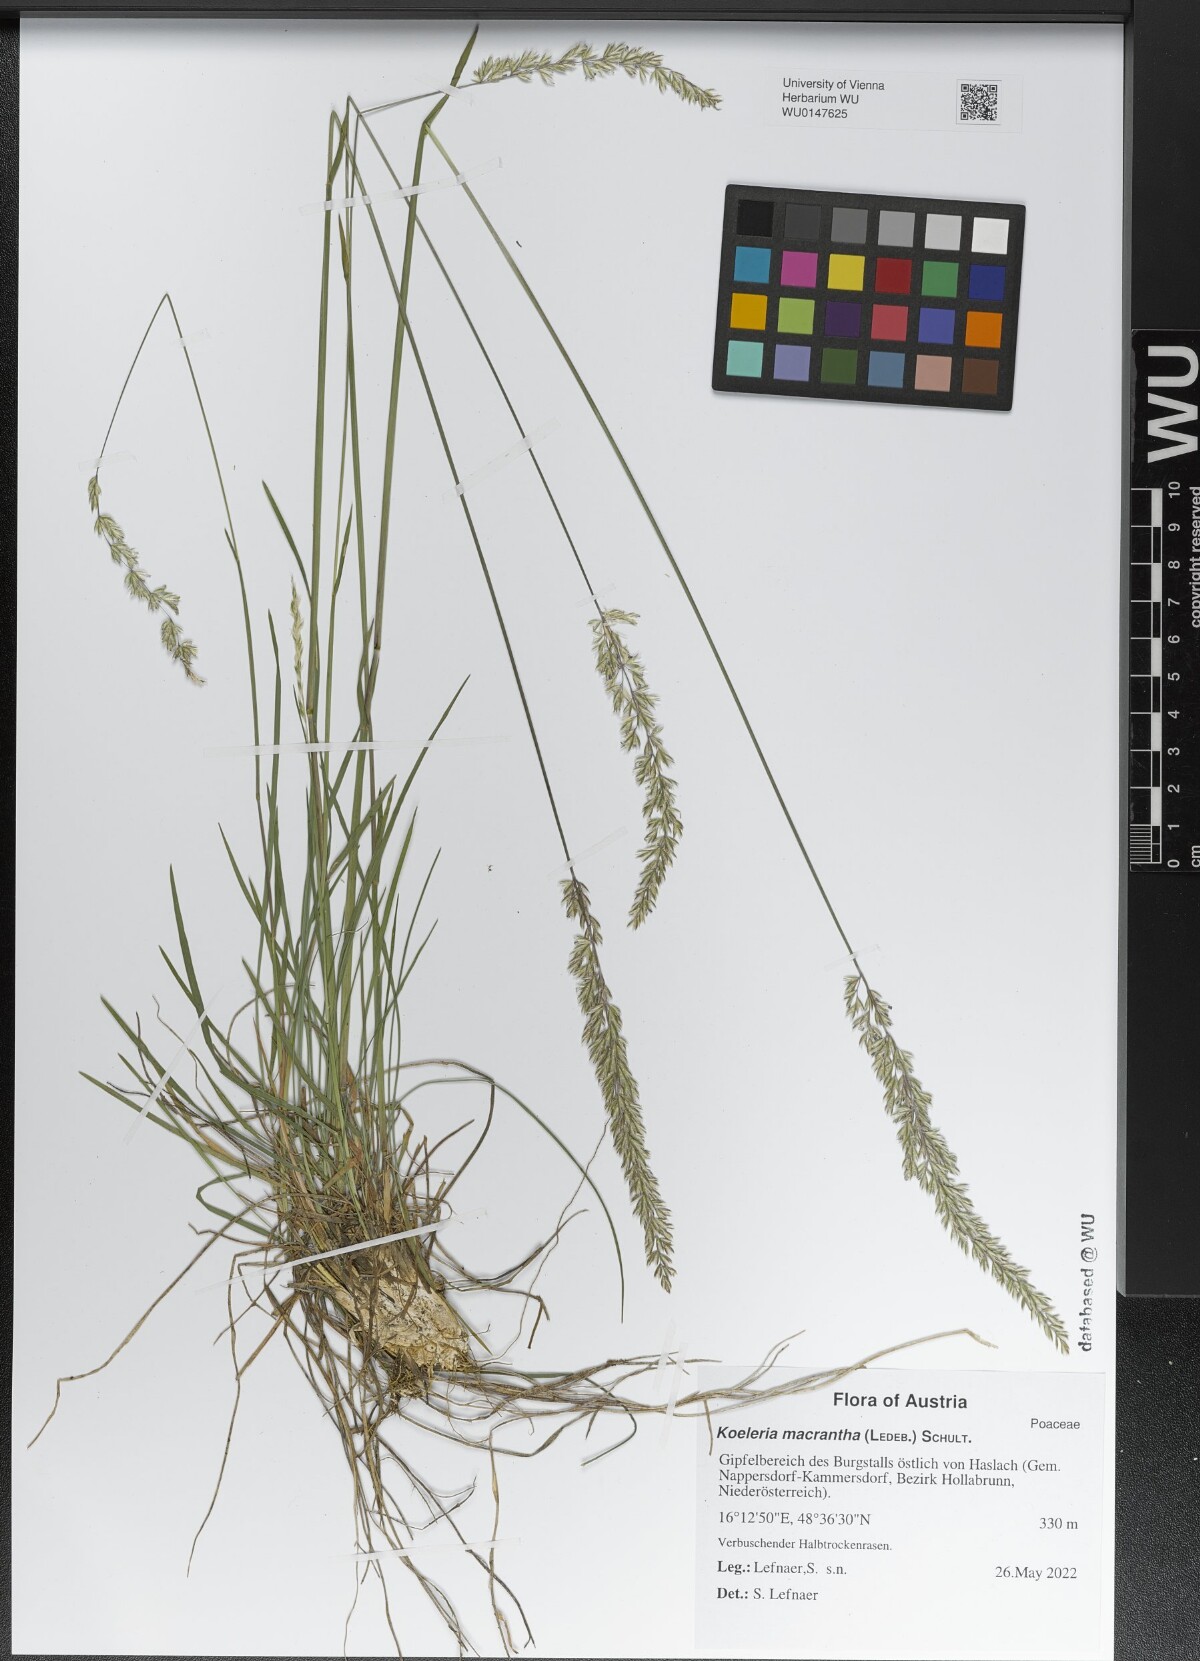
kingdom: Plantae
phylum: Tracheophyta
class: Liliopsida
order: Poales
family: Poaceae
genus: Koeleria
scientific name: Koeleria macrantha
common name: Crested hair-grass
